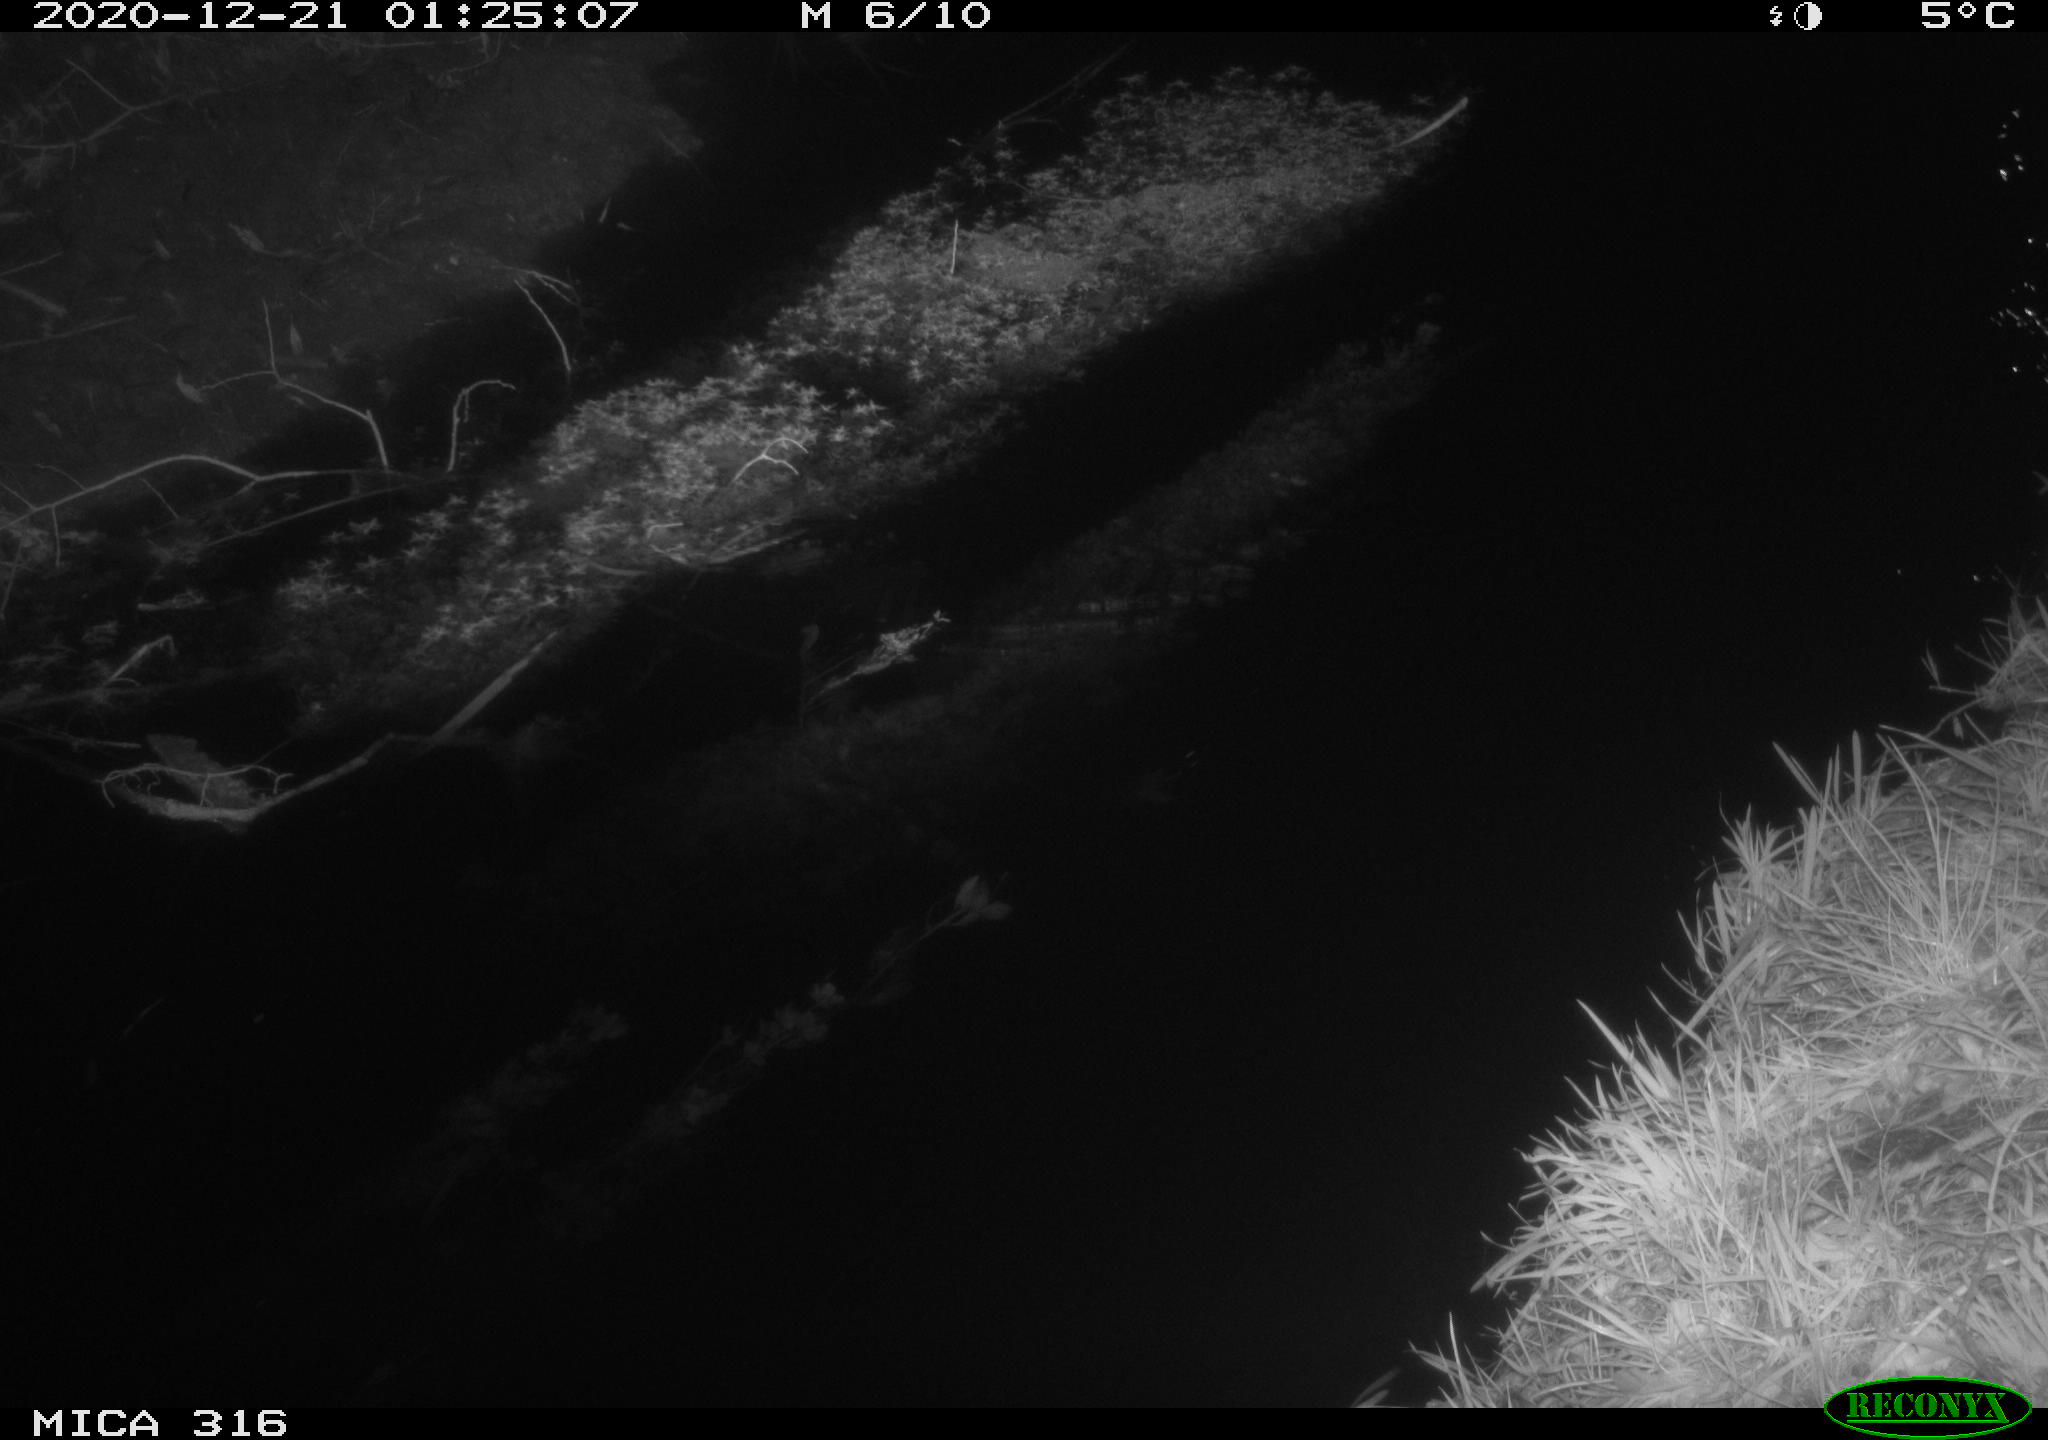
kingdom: Animalia
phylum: Chordata
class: Mammalia
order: Rodentia
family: Muridae
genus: Rattus
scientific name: Rattus norvegicus
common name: Brown rat
